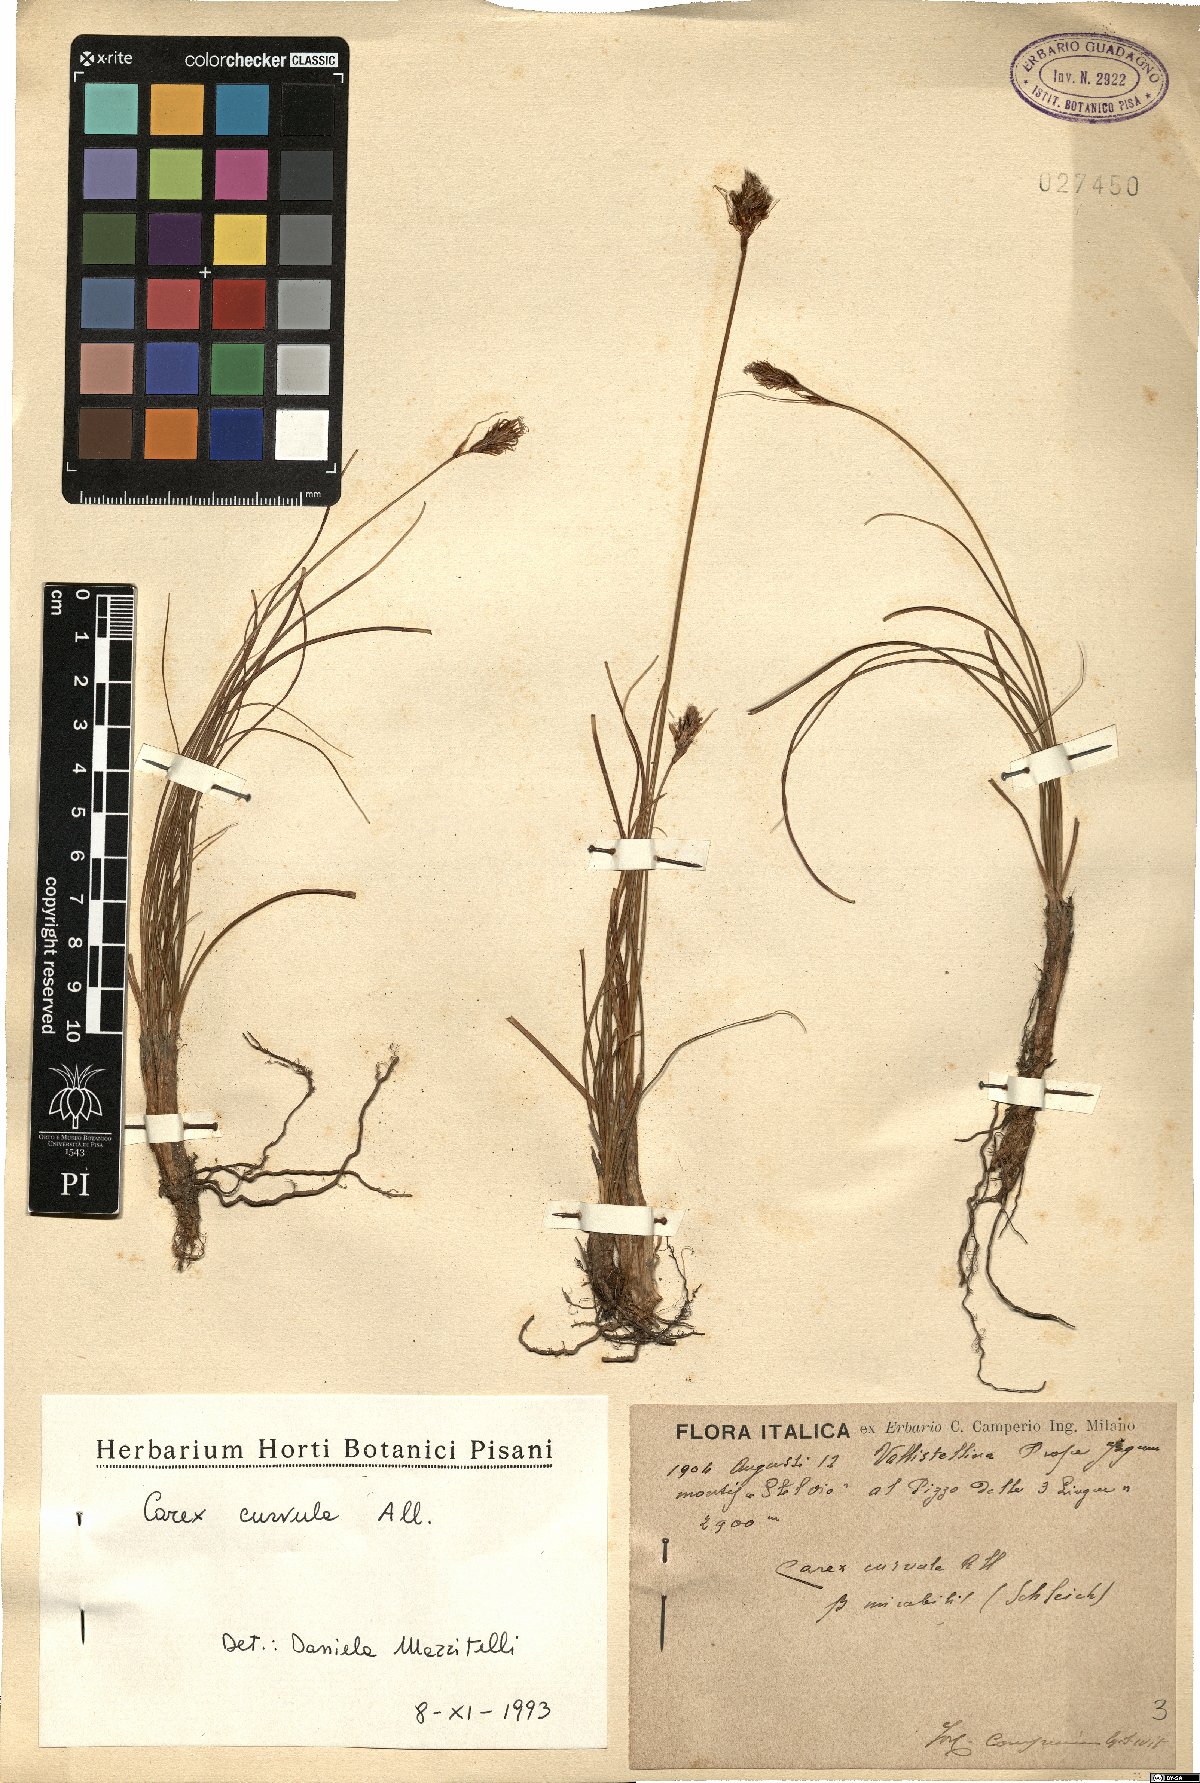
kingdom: Plantae
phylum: Tracheophyta
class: Liliopsida
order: Poales
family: Cyperaceae
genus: Carex
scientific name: Carex curvula
